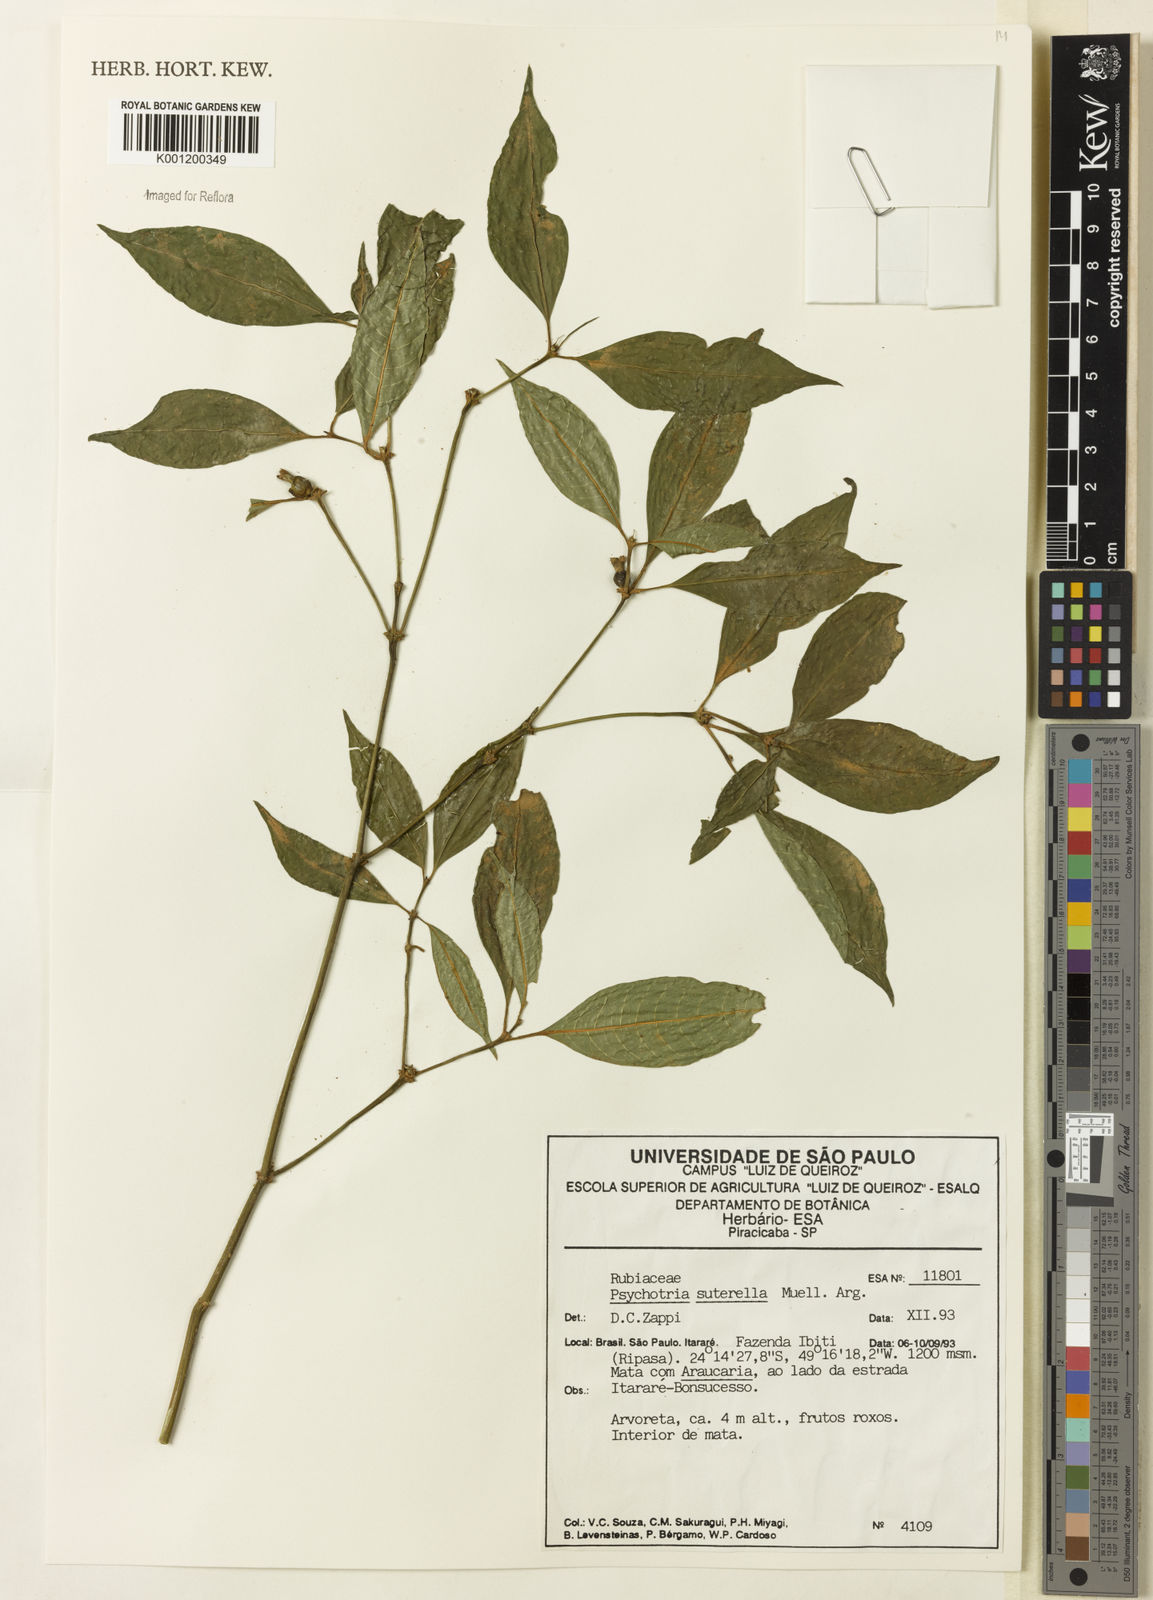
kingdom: Plantae
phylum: Tracheophyta
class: Magnoliopsida
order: Gentianales
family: Rubiaceae
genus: Psychotria
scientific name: Psychotria
